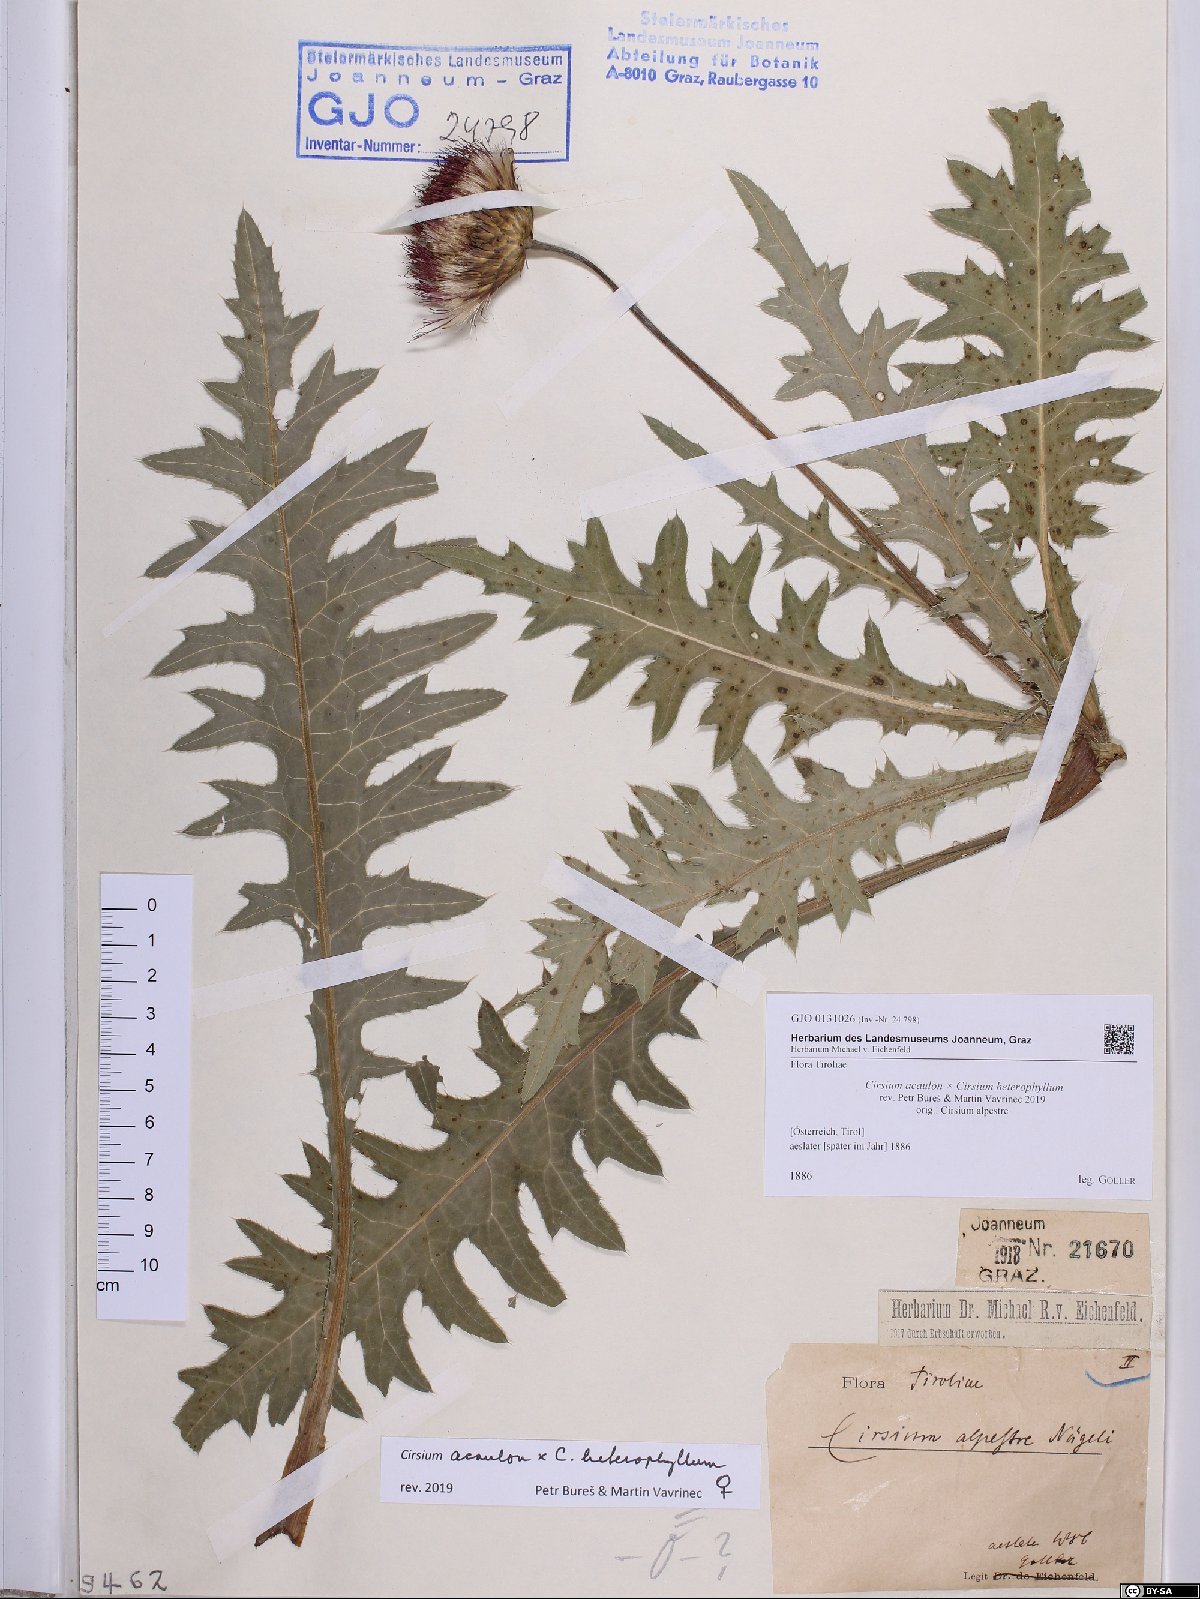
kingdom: Plantae
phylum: Tracheophyta
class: Magnoliopsida
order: Asterales
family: Asteraceae
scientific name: Asteraceae
